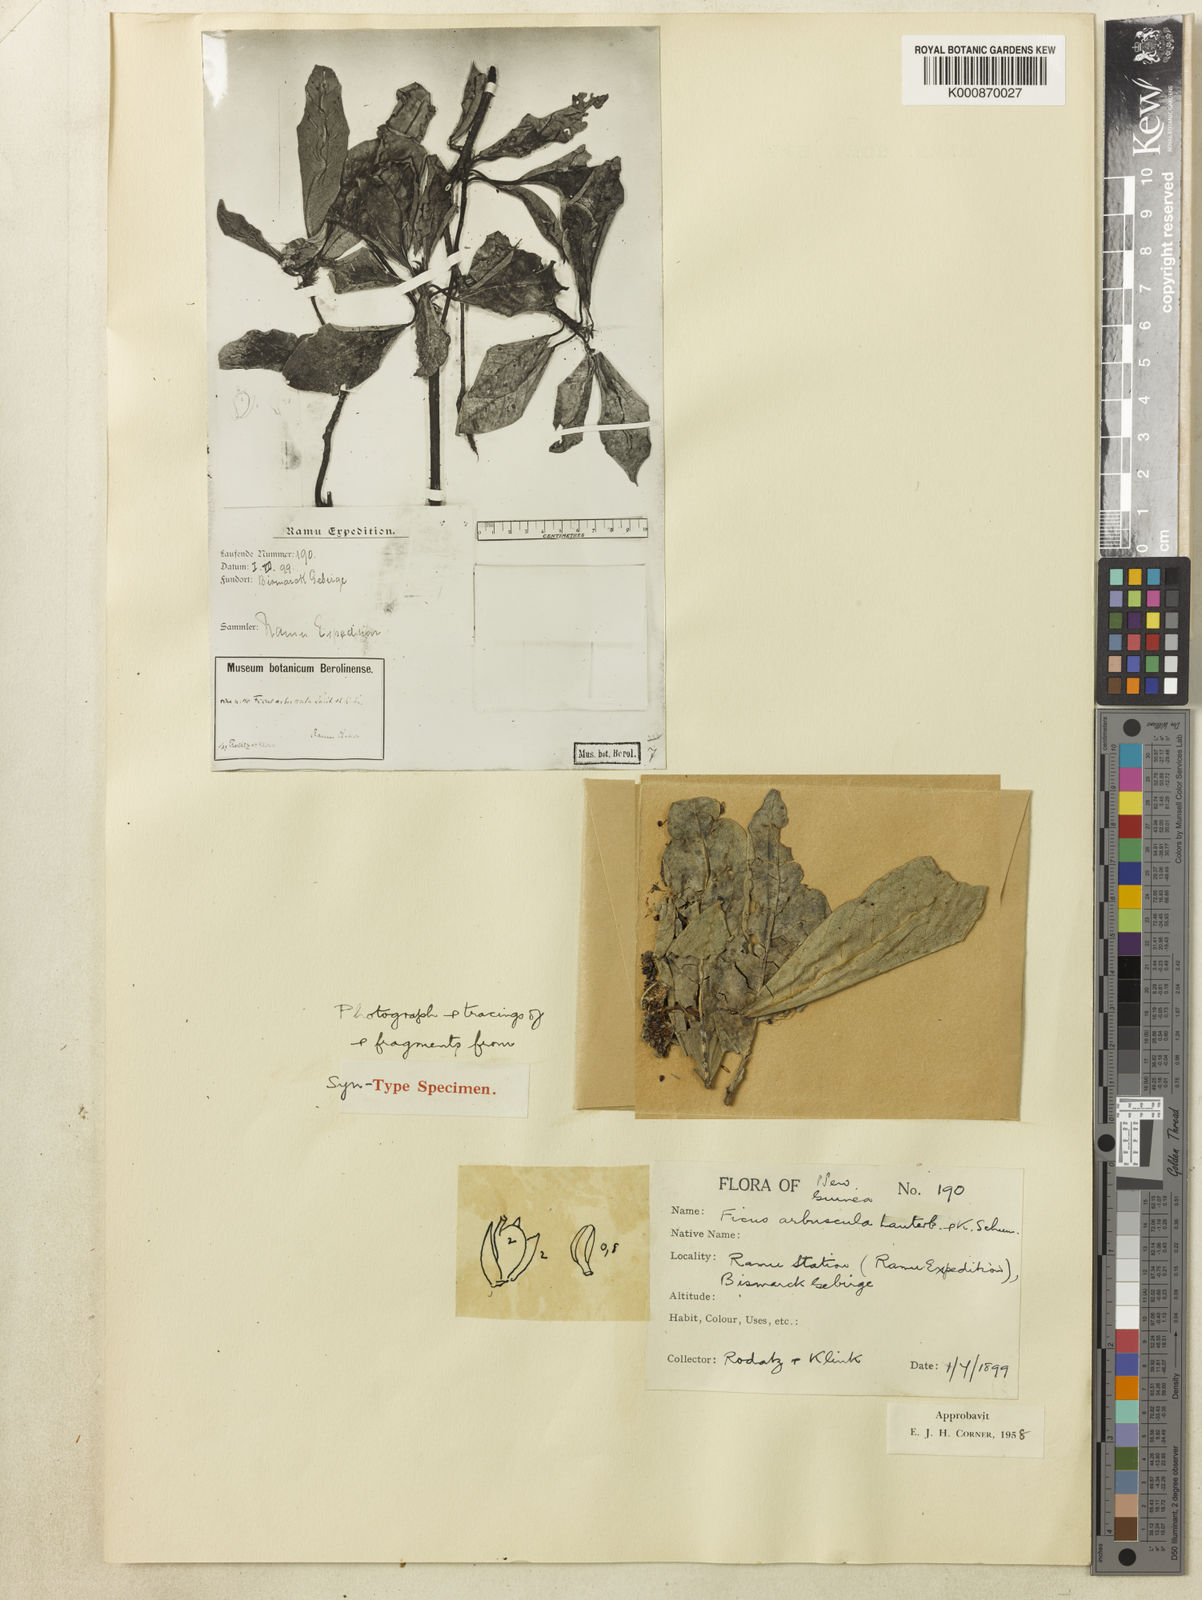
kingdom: Plantae
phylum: Tracheophyta
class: Magnoliopsida
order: Rosales
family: Moraceae
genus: Ficus
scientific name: Ficus arbuscula
